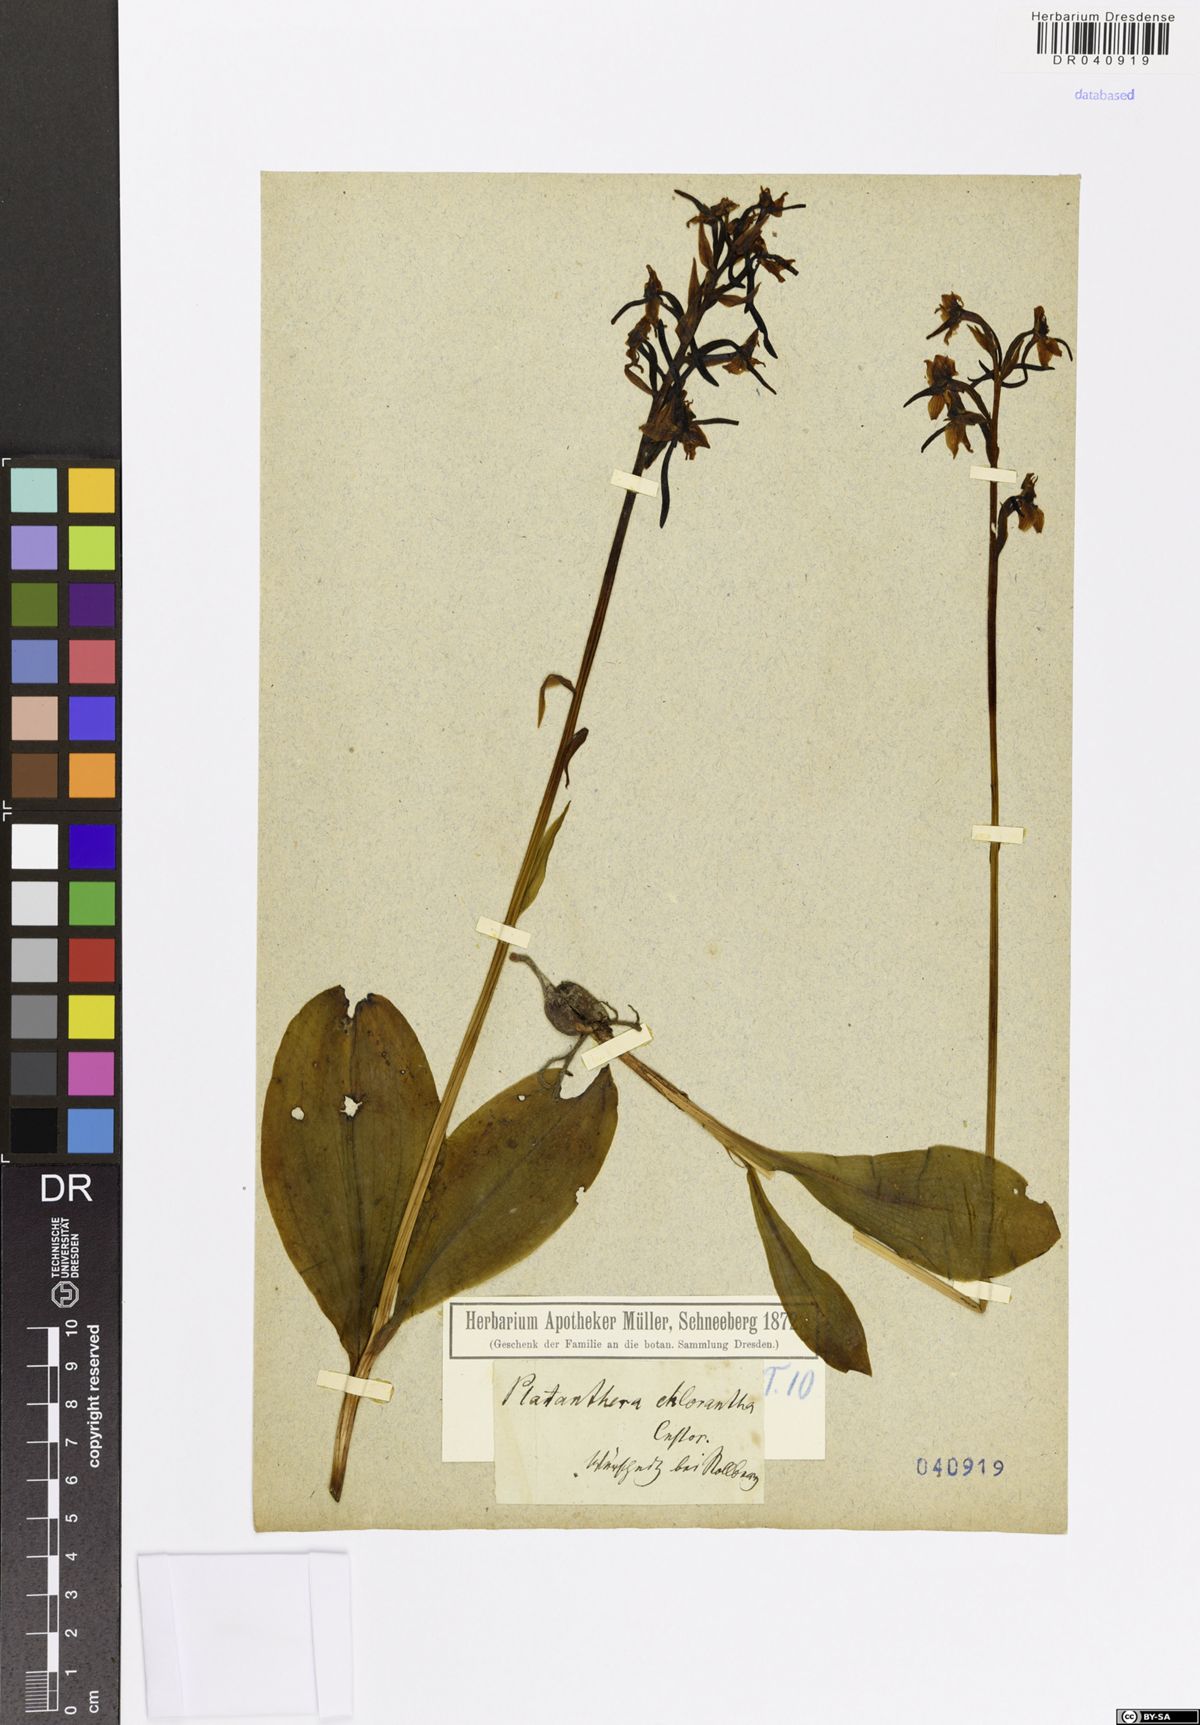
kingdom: Plantae
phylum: Tracheophyta
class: Liliopsida
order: Asparagales
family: Orchidaceae
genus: Platanthera
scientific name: Platanthera chlorantha
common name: Greater butterfly-orchid
